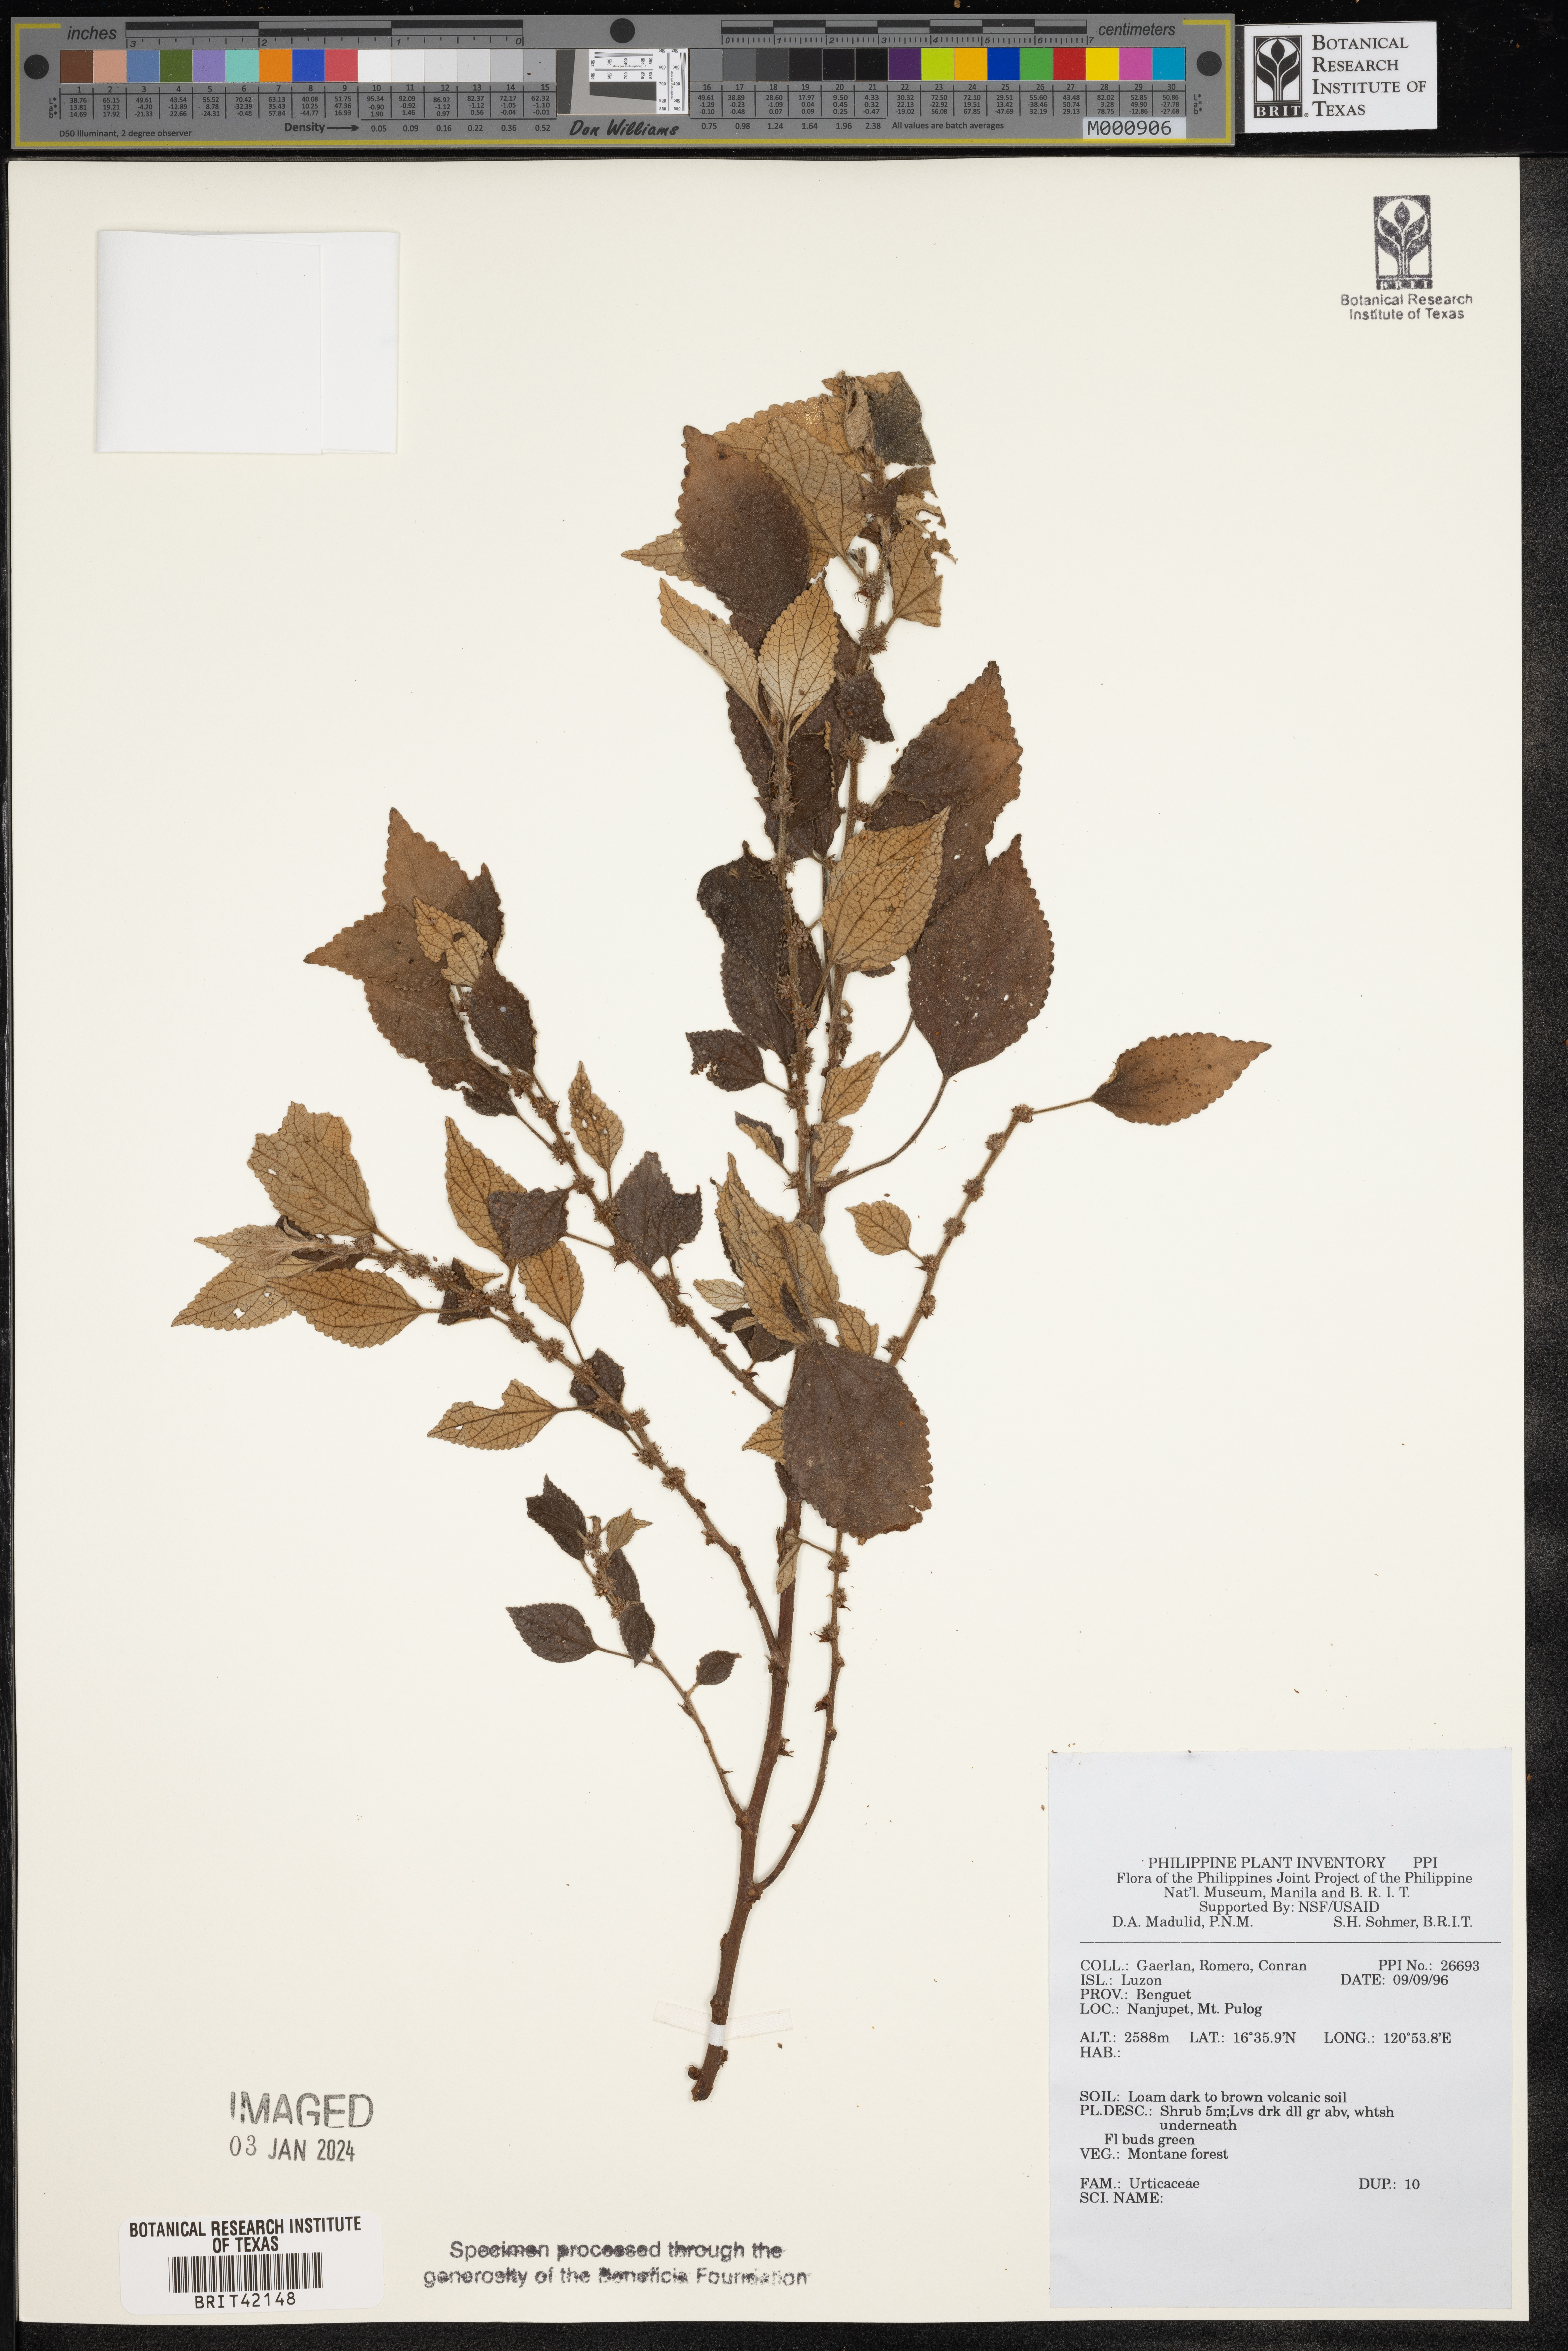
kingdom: Plantae
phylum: Tracheophyta
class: Magnoliopsida
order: Rosales
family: Urticaceae
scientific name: Urticaceae
